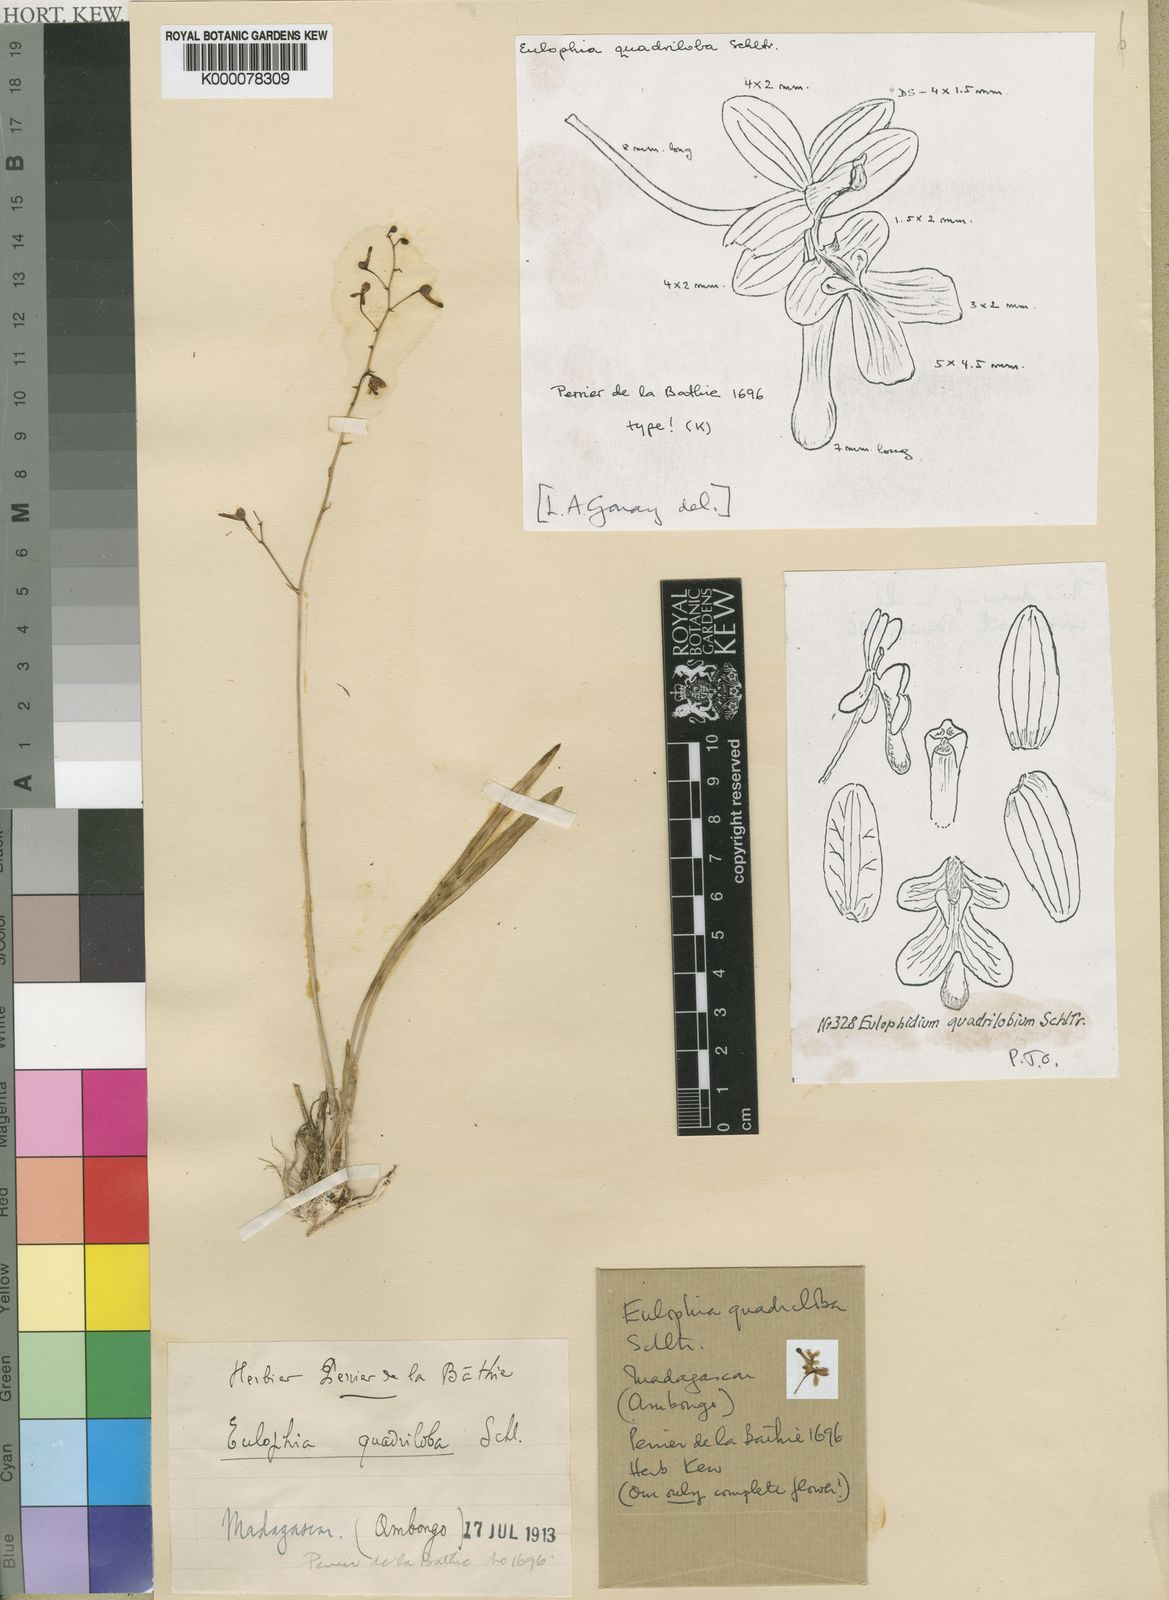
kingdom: Plantae
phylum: Tracheophyta
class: Liliopsida
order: Asparagales
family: Orchidaceae
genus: Eulophia
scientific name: Eulophia quadriloba
